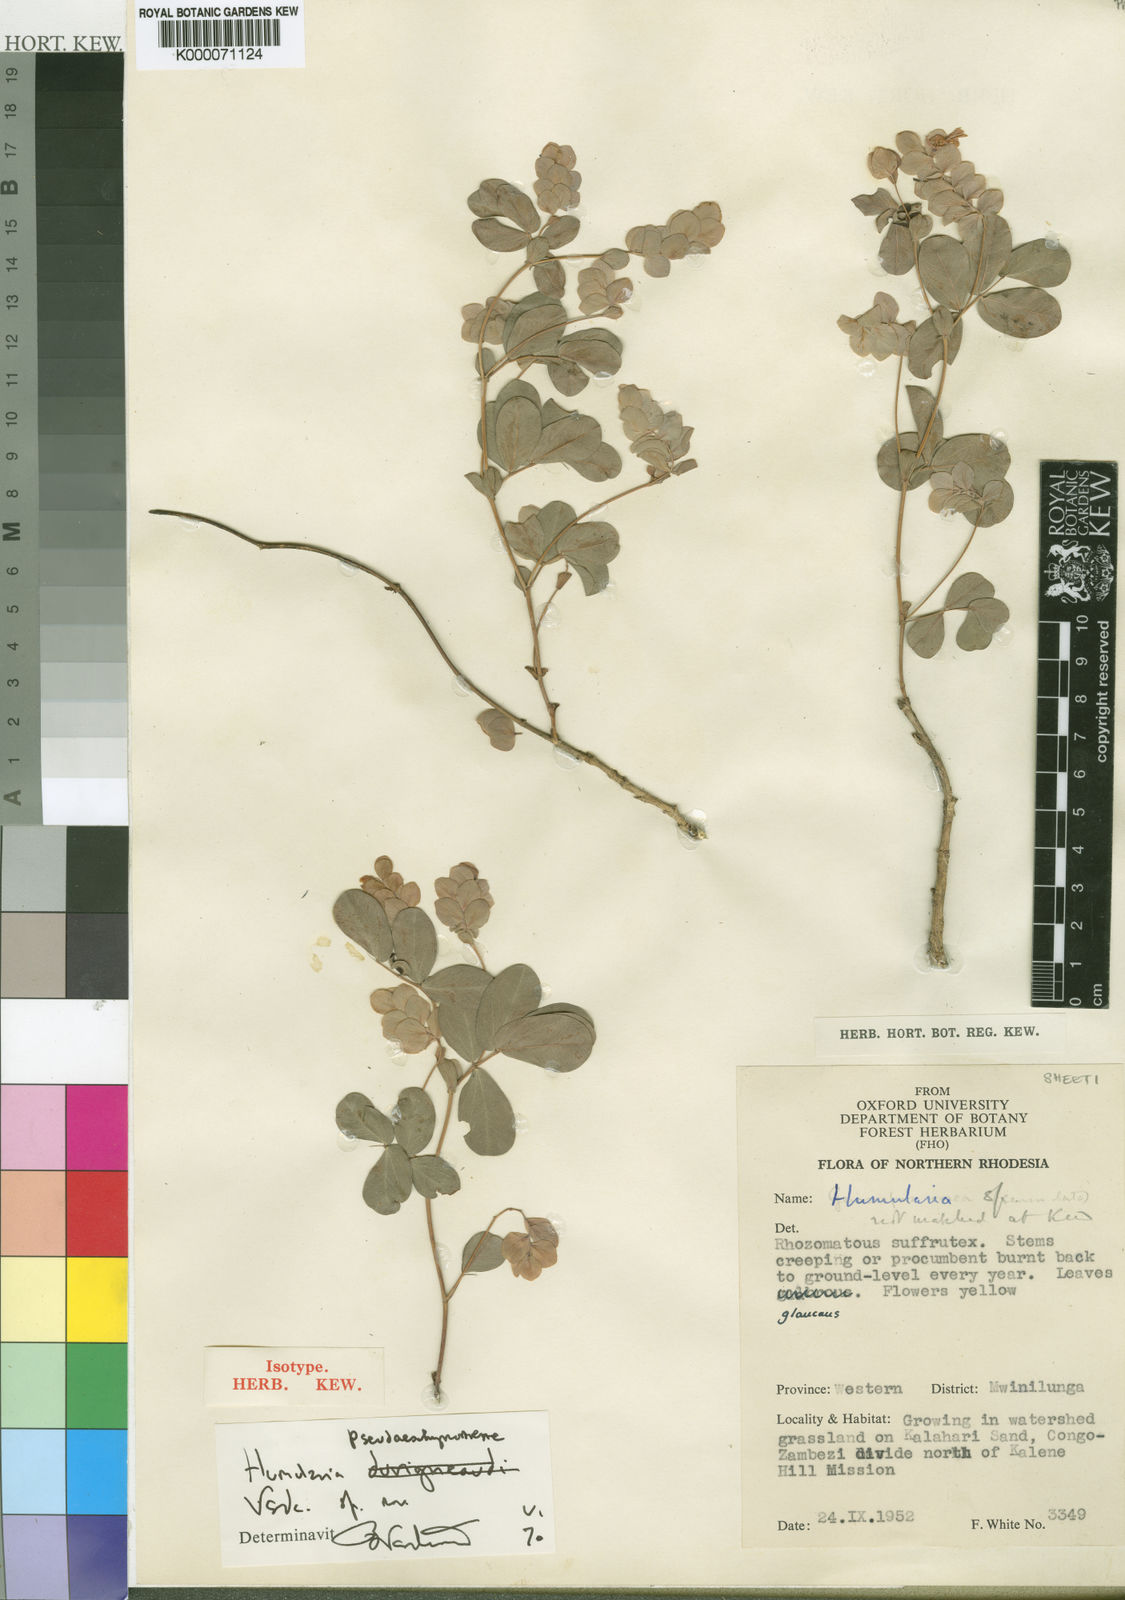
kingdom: Plantae
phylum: Tracheophyta
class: Magnoliopsida
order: Fabales
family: Fabaceae
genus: Humularia
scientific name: Humularia pseudaeschynomene
